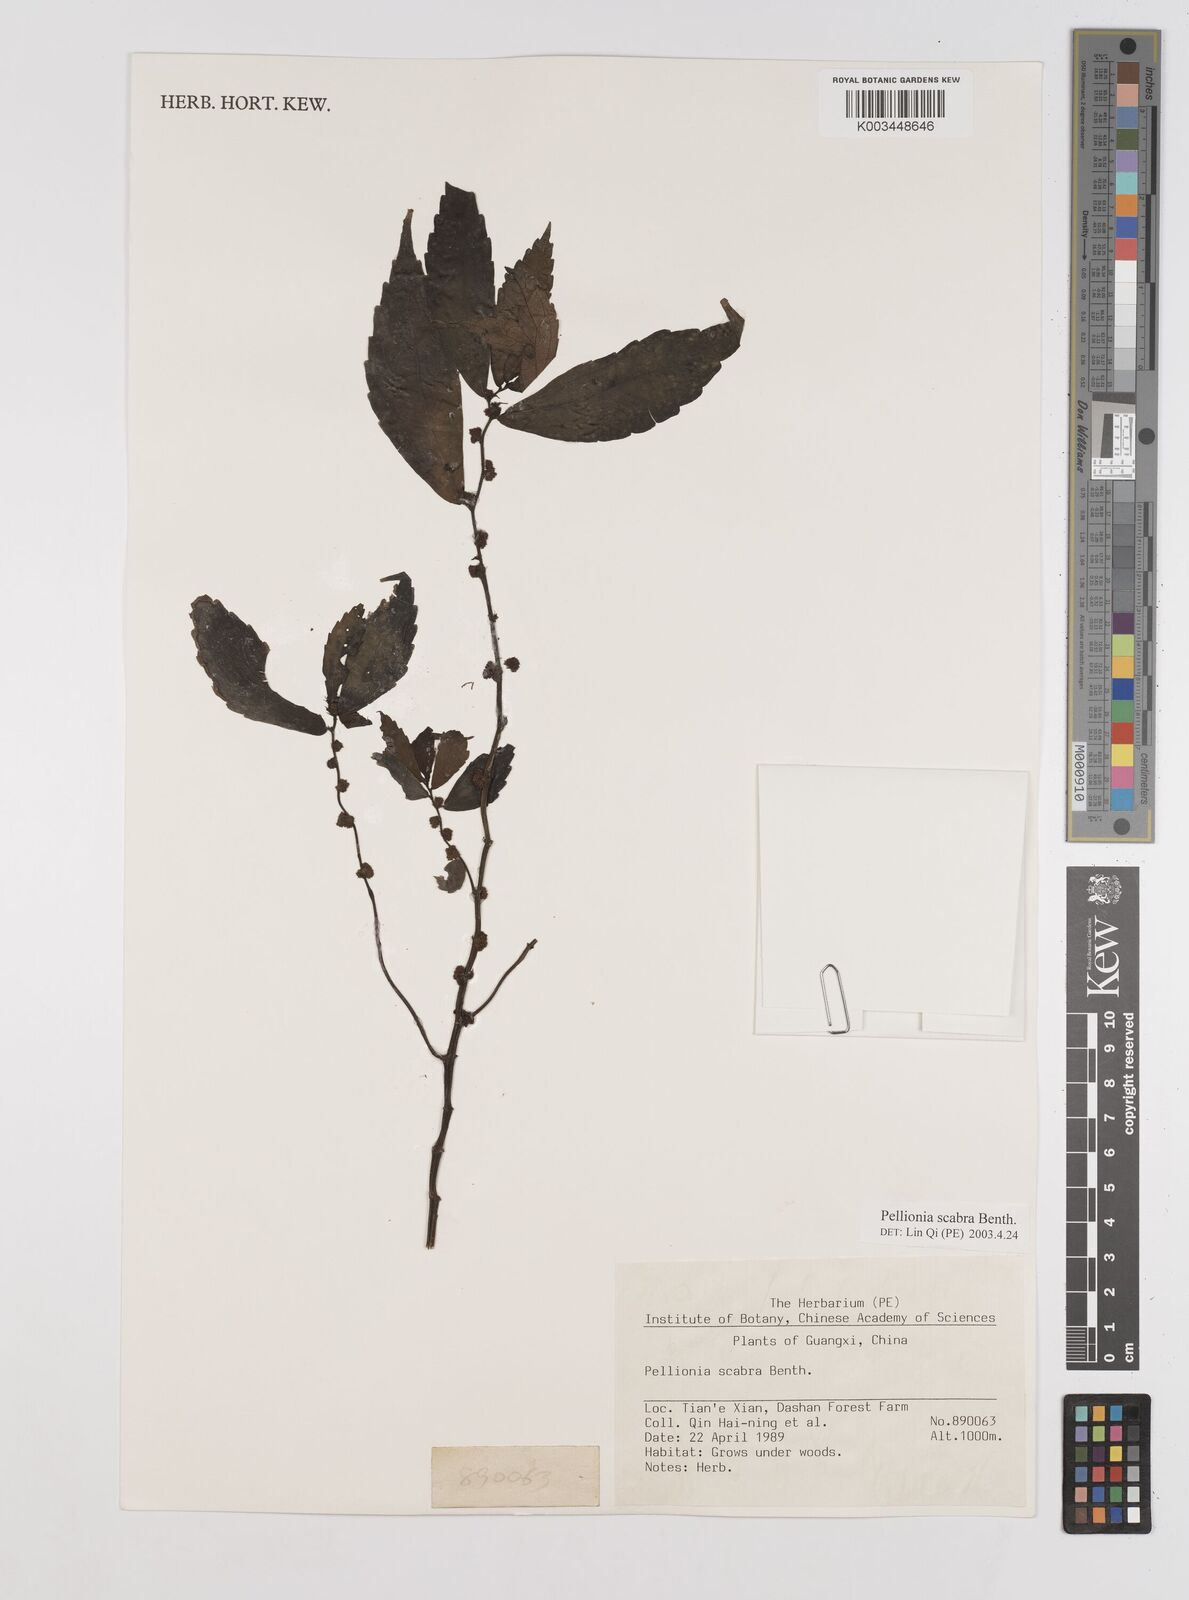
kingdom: Plantae
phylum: Tracheophyta
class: Magnoliopsida
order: Rosales
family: Urticaceae
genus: Elatostema
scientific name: Elatostema
